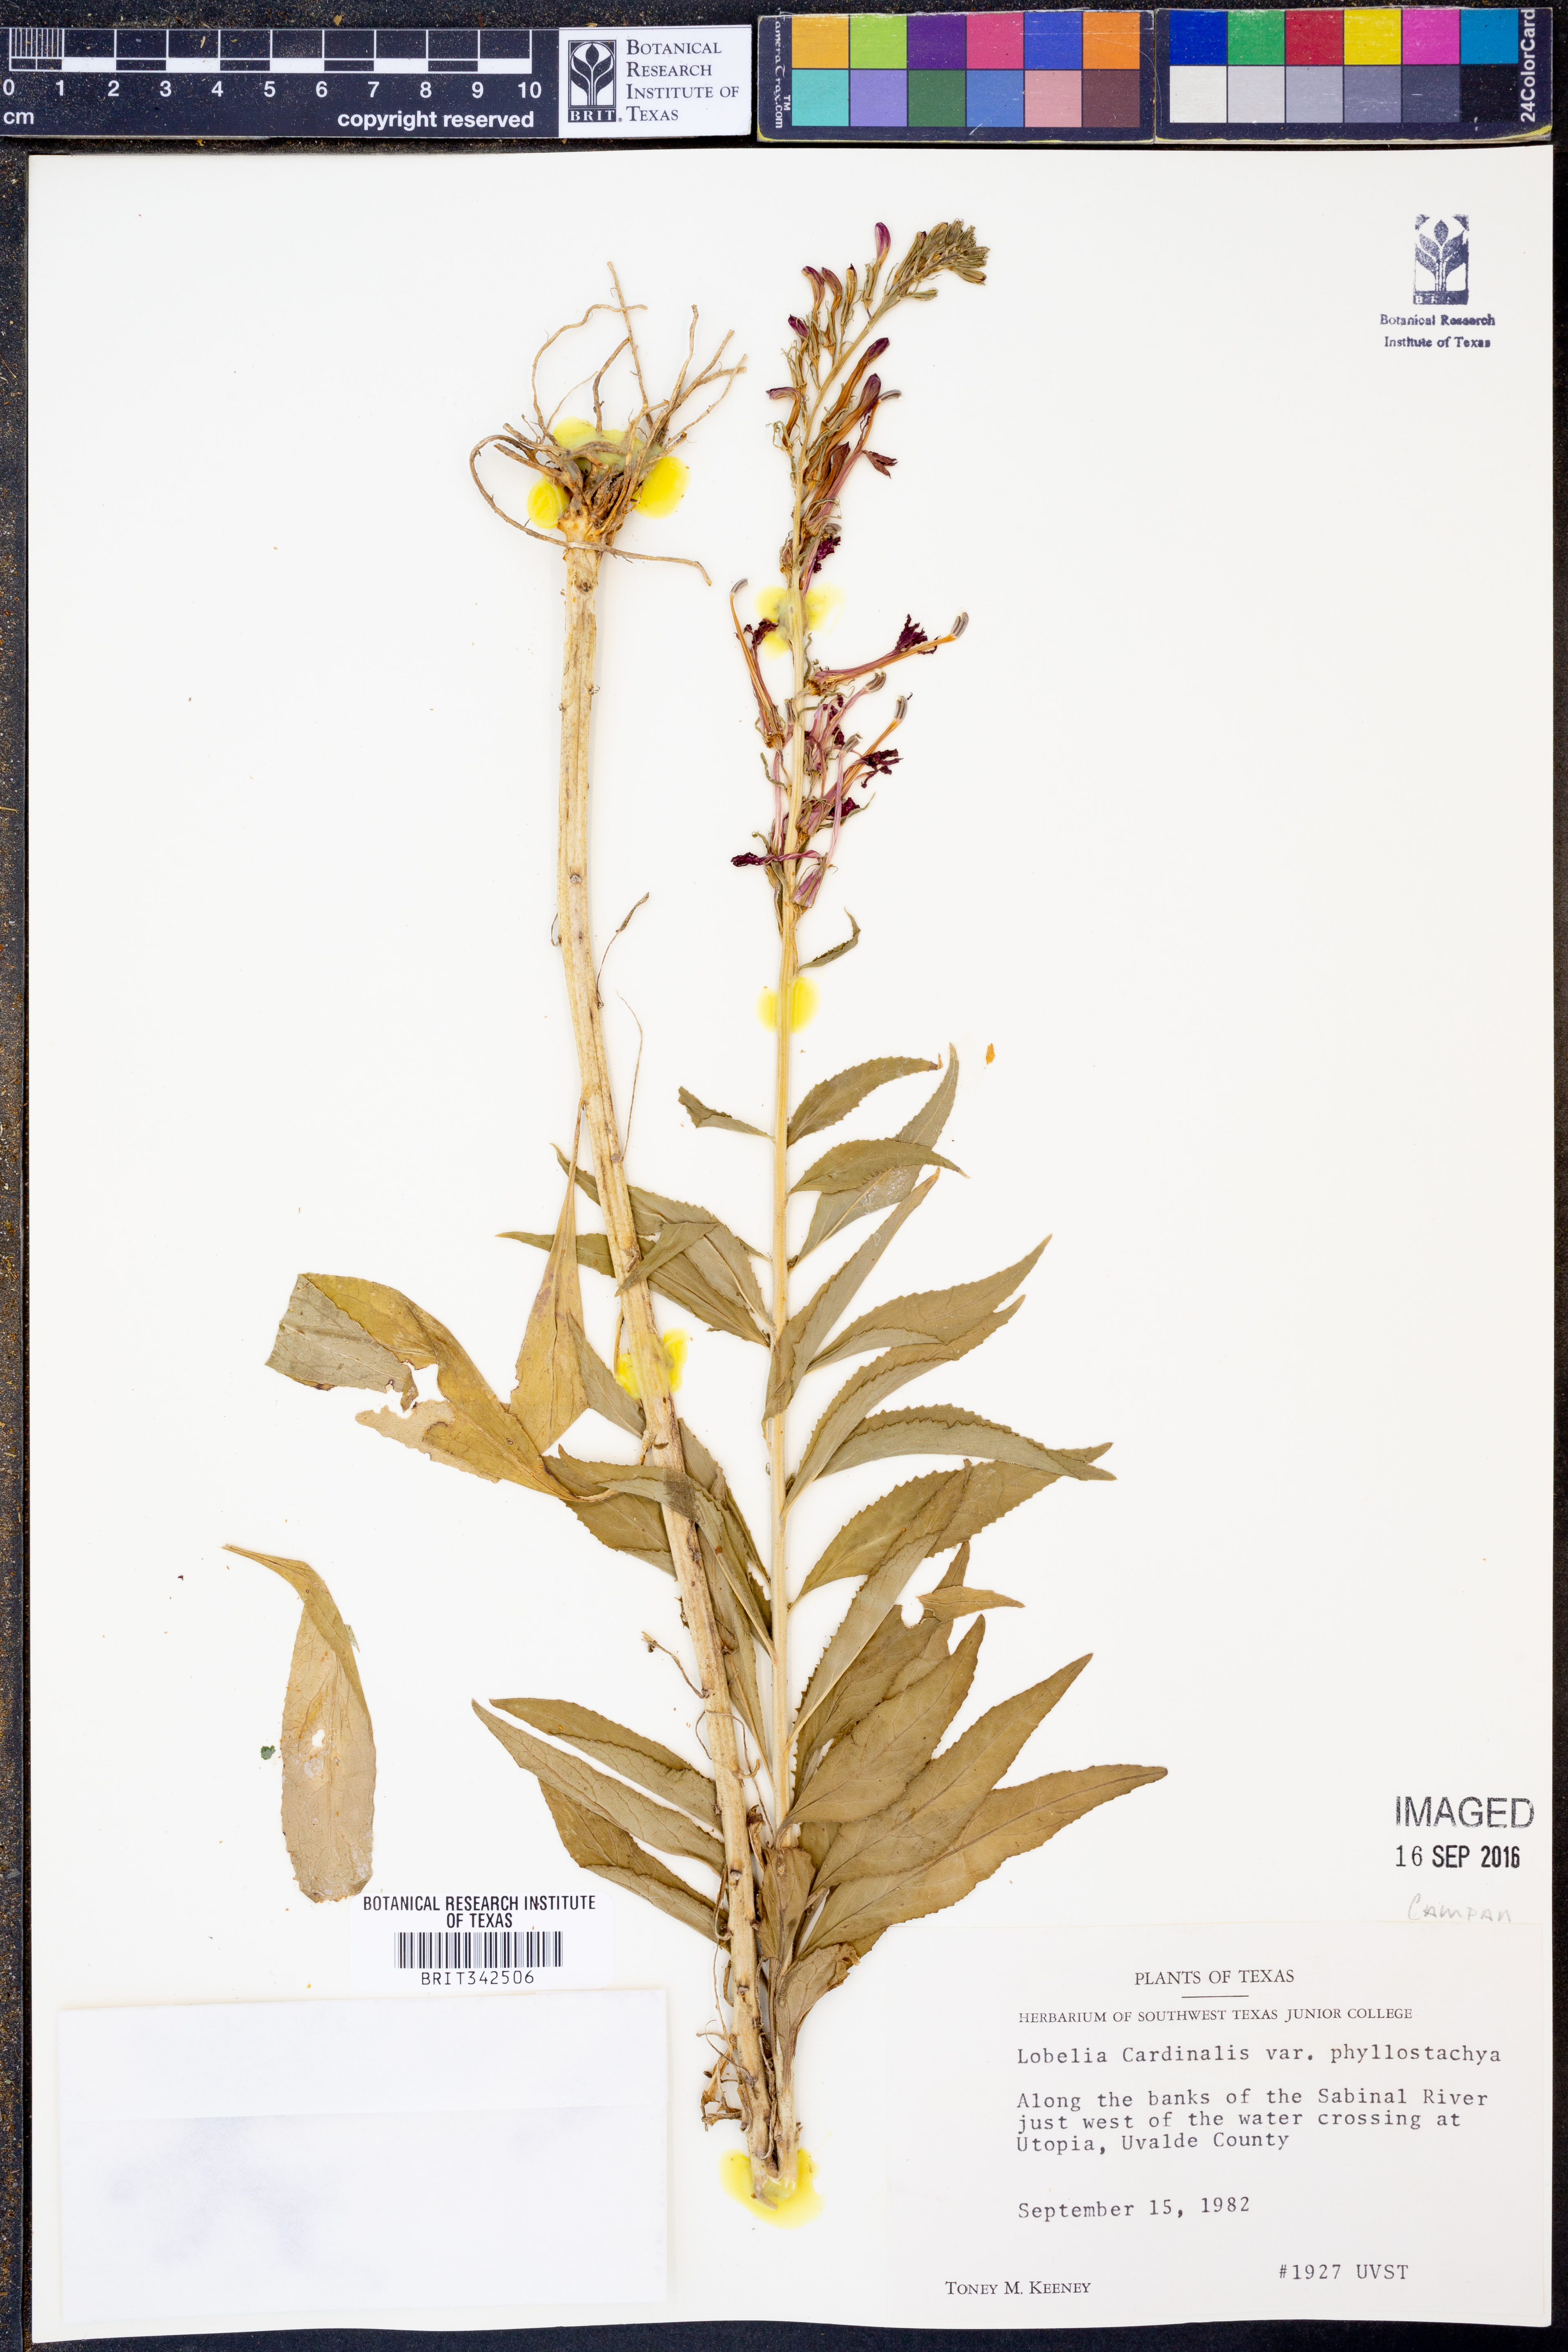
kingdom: Plantae
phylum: Tracheophyta
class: Magnoliopsida
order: Asterales
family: Campanulaceae
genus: Lobelia
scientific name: Lobelia cardinalis
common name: Cardinal flower
